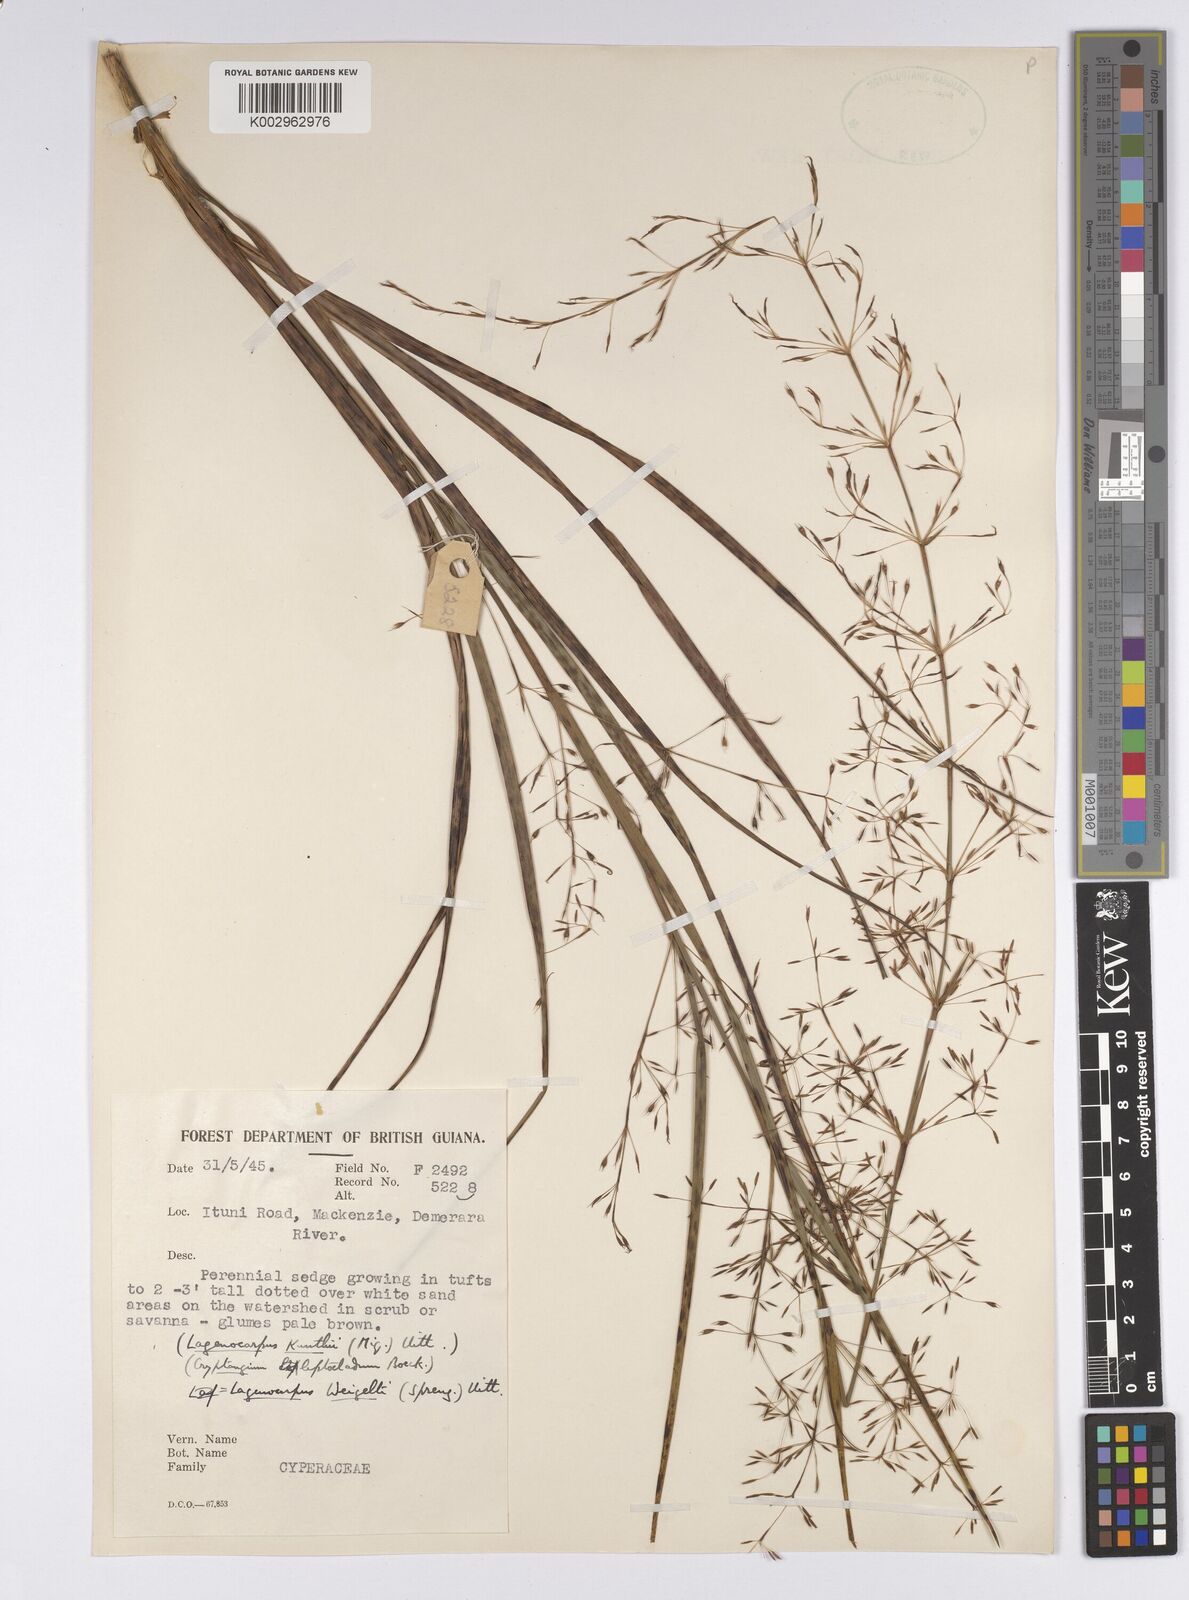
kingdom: Plantae
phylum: Tracheophyta
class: Liliopsida
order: Poales
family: Cyperaceae
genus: Cryptangium
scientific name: Cryptangium verticillatum
